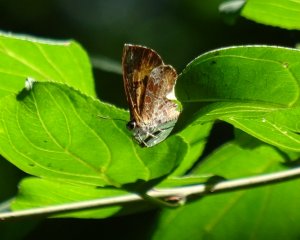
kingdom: Animalia
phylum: Arthropoda
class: Insecta
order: Lepidoptera
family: Lycaenidae
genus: Feniseca
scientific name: Feniseca tarquinius
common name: Harvester
